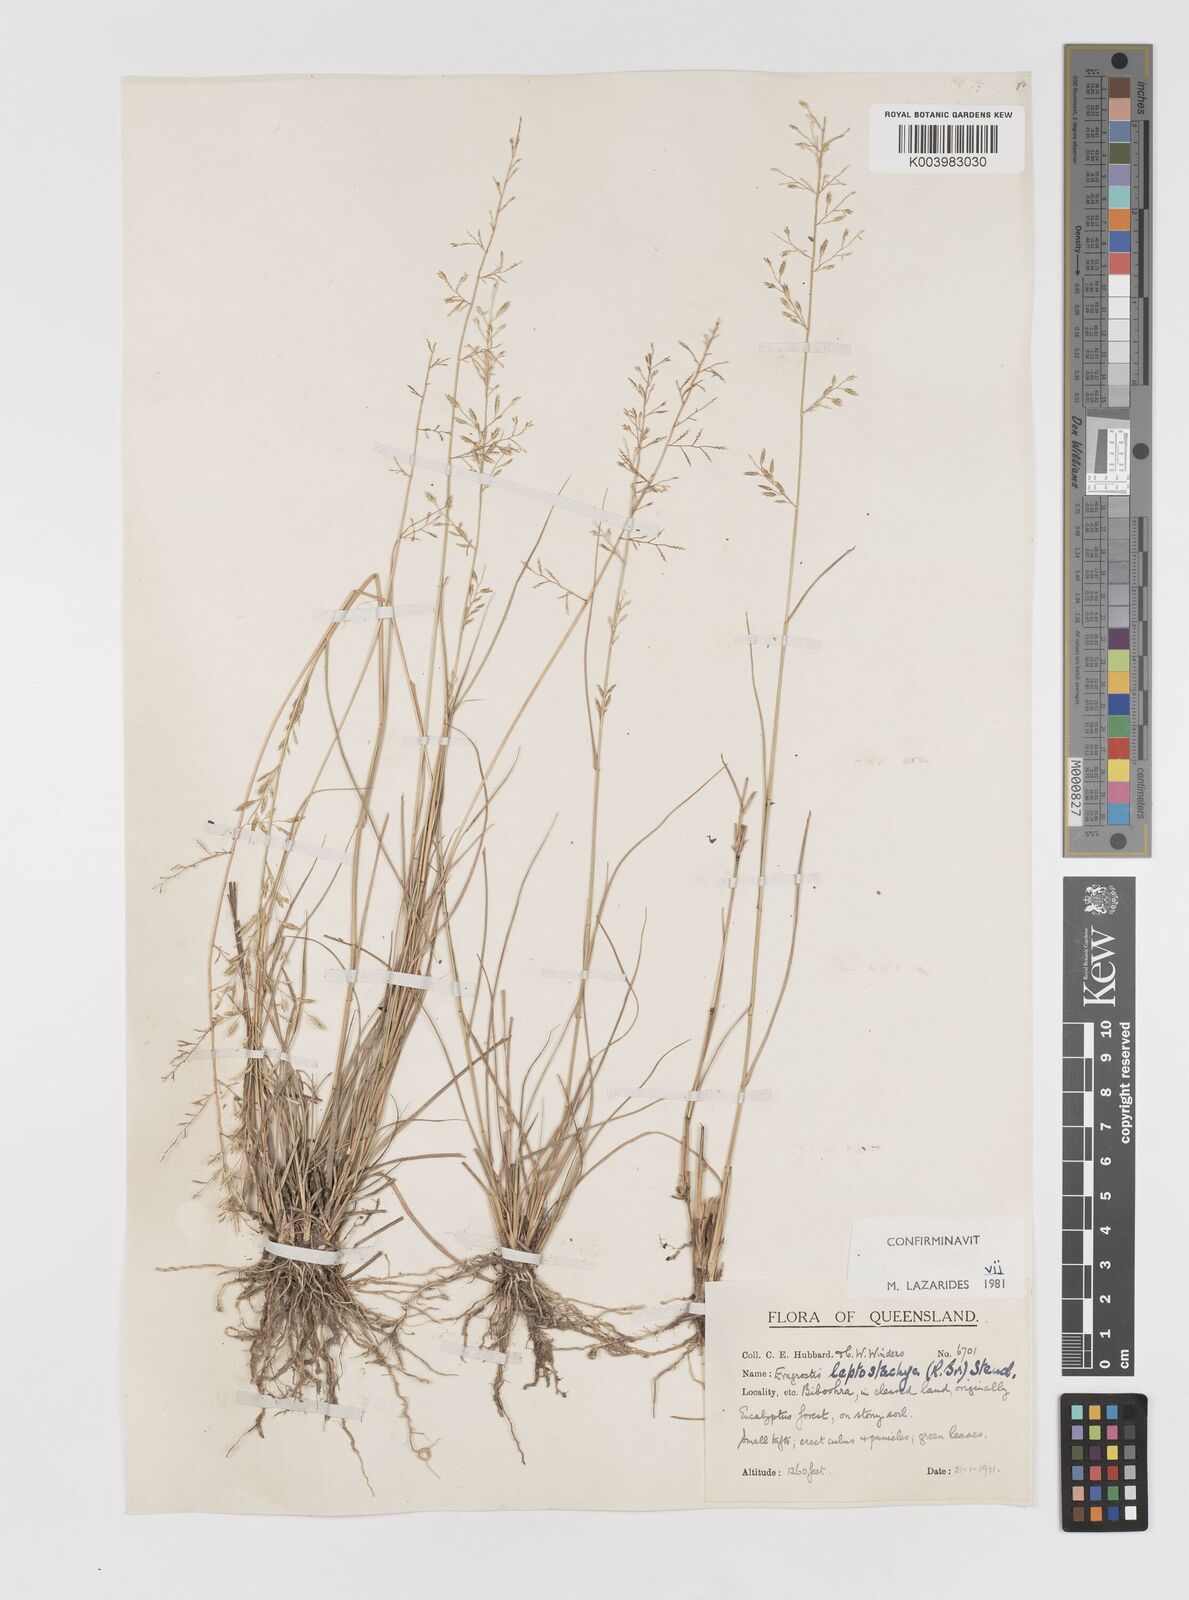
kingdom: Plantae
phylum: Tracheophyta
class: Liliopsida
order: Poales
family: Poaceae
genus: Eragrostis
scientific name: Eragrostis leptostachya
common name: Australian lovegrass
